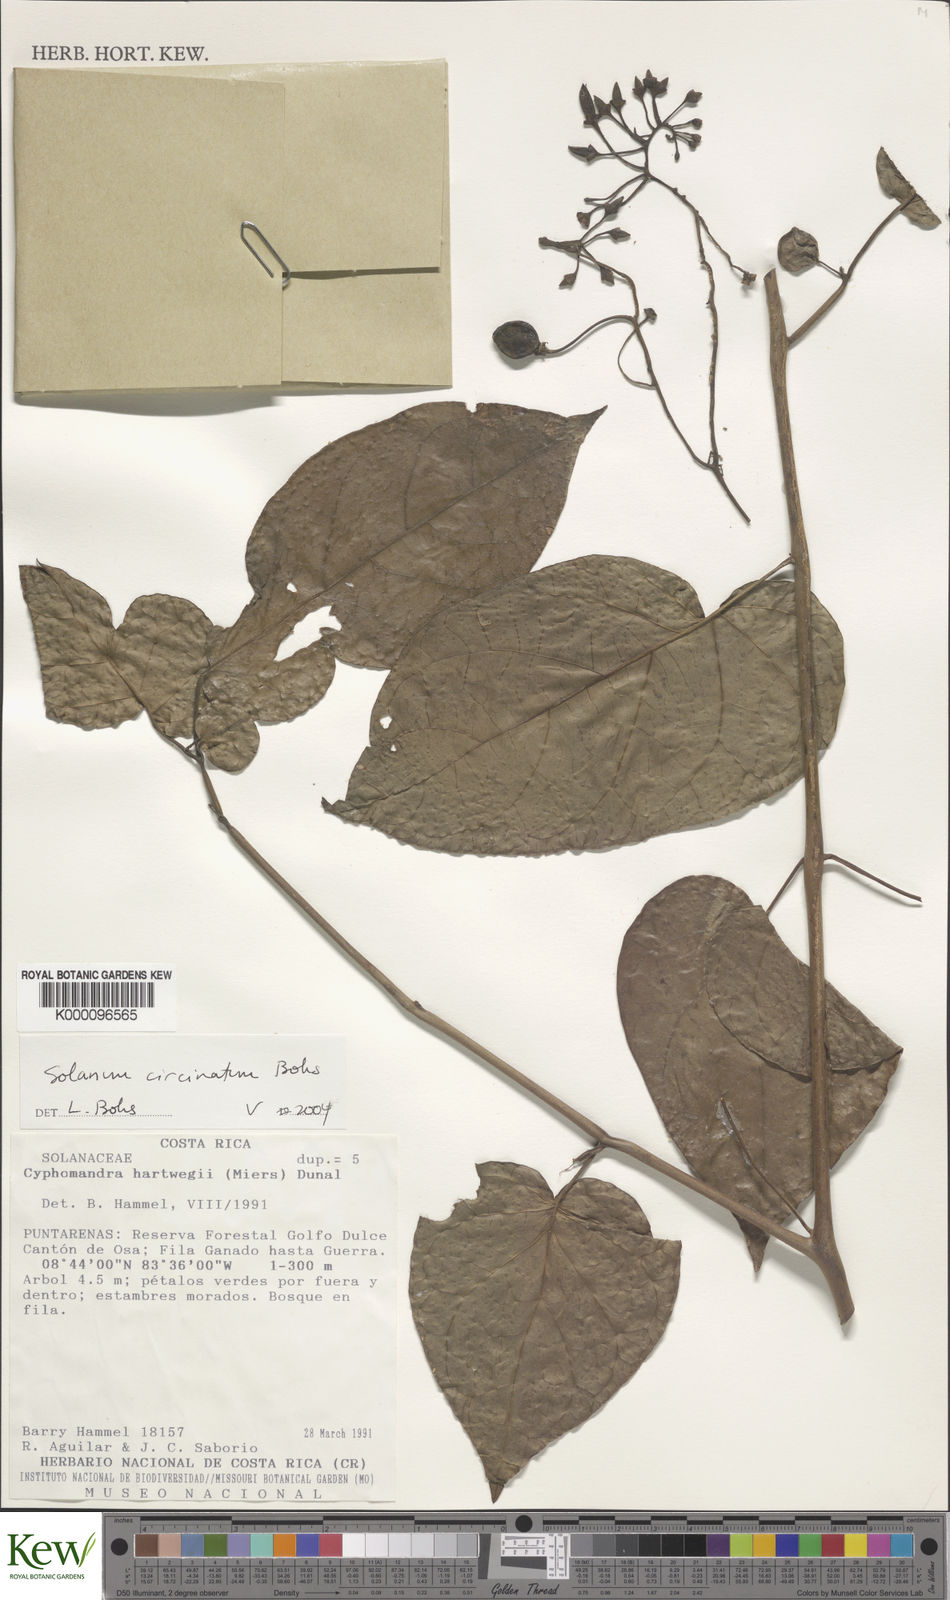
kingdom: Plantae
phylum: Tracheophyta
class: Magnoliopsida
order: Solanales
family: Solanaceae
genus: Solanum
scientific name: Solanum splendens
